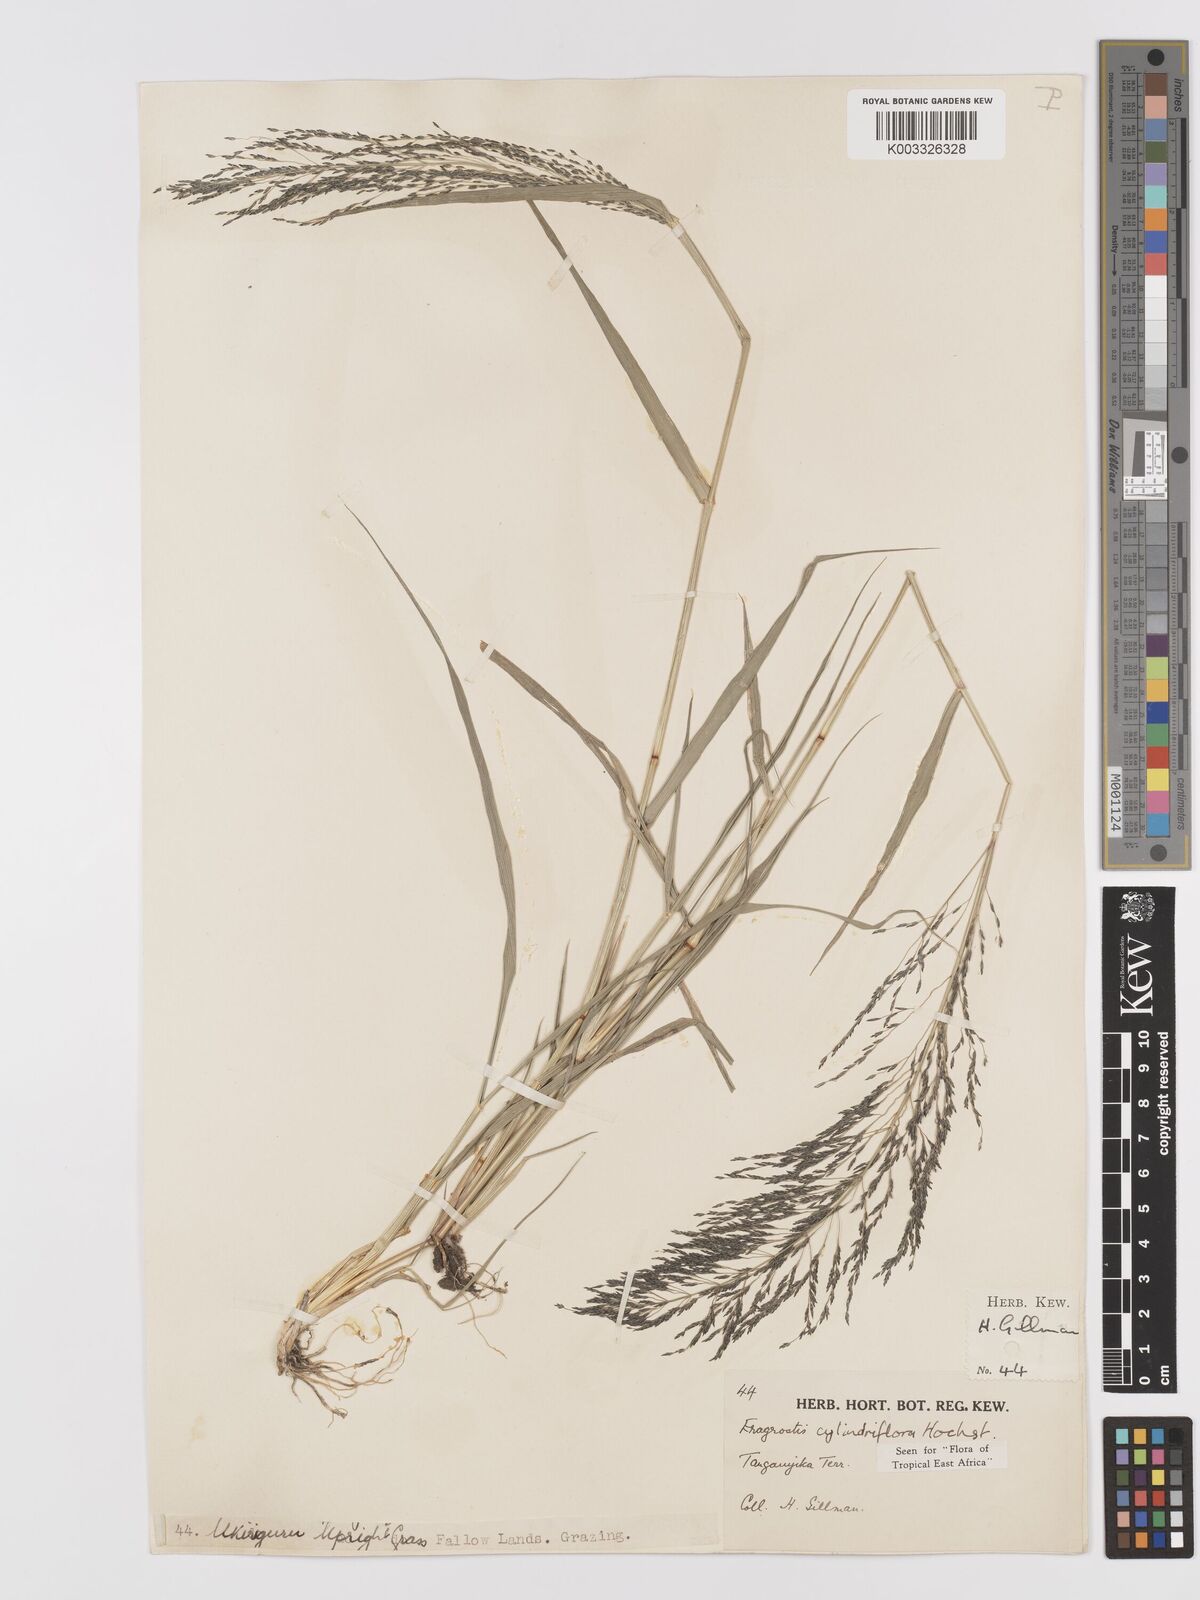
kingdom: Plantae
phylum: Tracheophyta
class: Liliopsida
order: Poales
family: Poaceae
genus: Eragrostis
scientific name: Eragrostis cylindriflora
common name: Cylinderflower lovegrass
